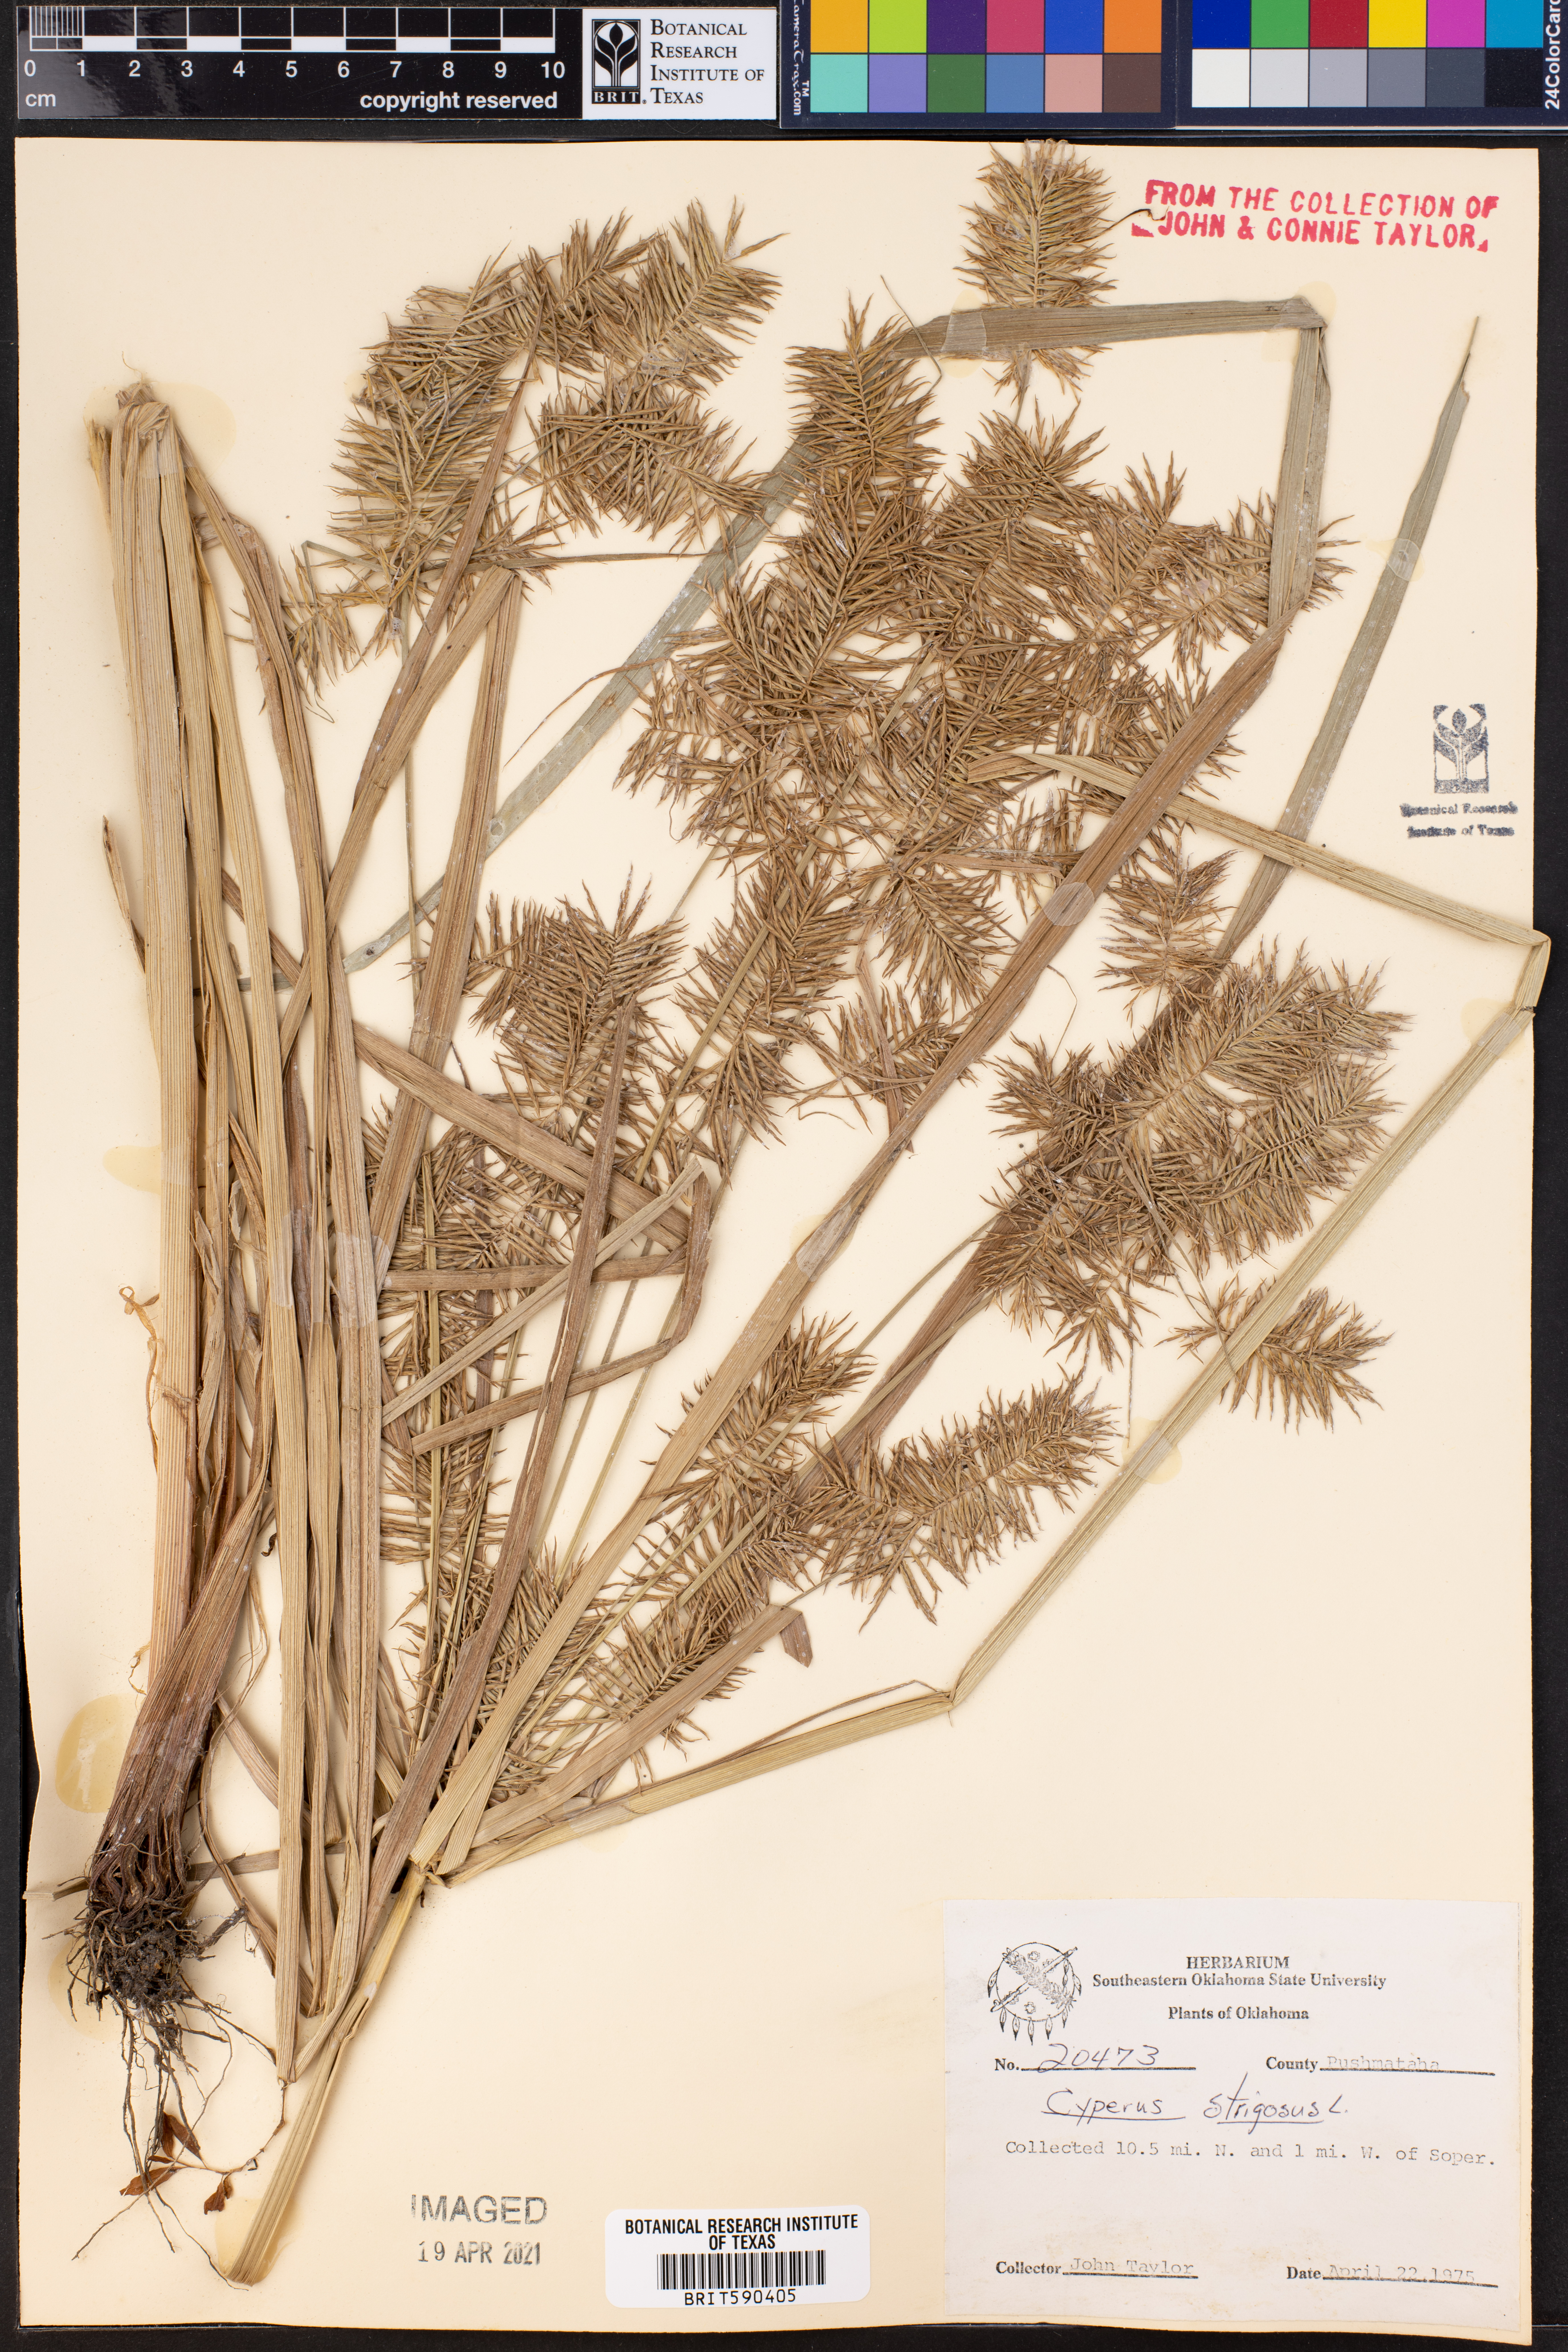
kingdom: Plantae
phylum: Tracheophyta
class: Liliopsida
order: Poales
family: Cyperaceae
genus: Cyperus
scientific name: Cyperus strigosus
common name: False nutsedge
